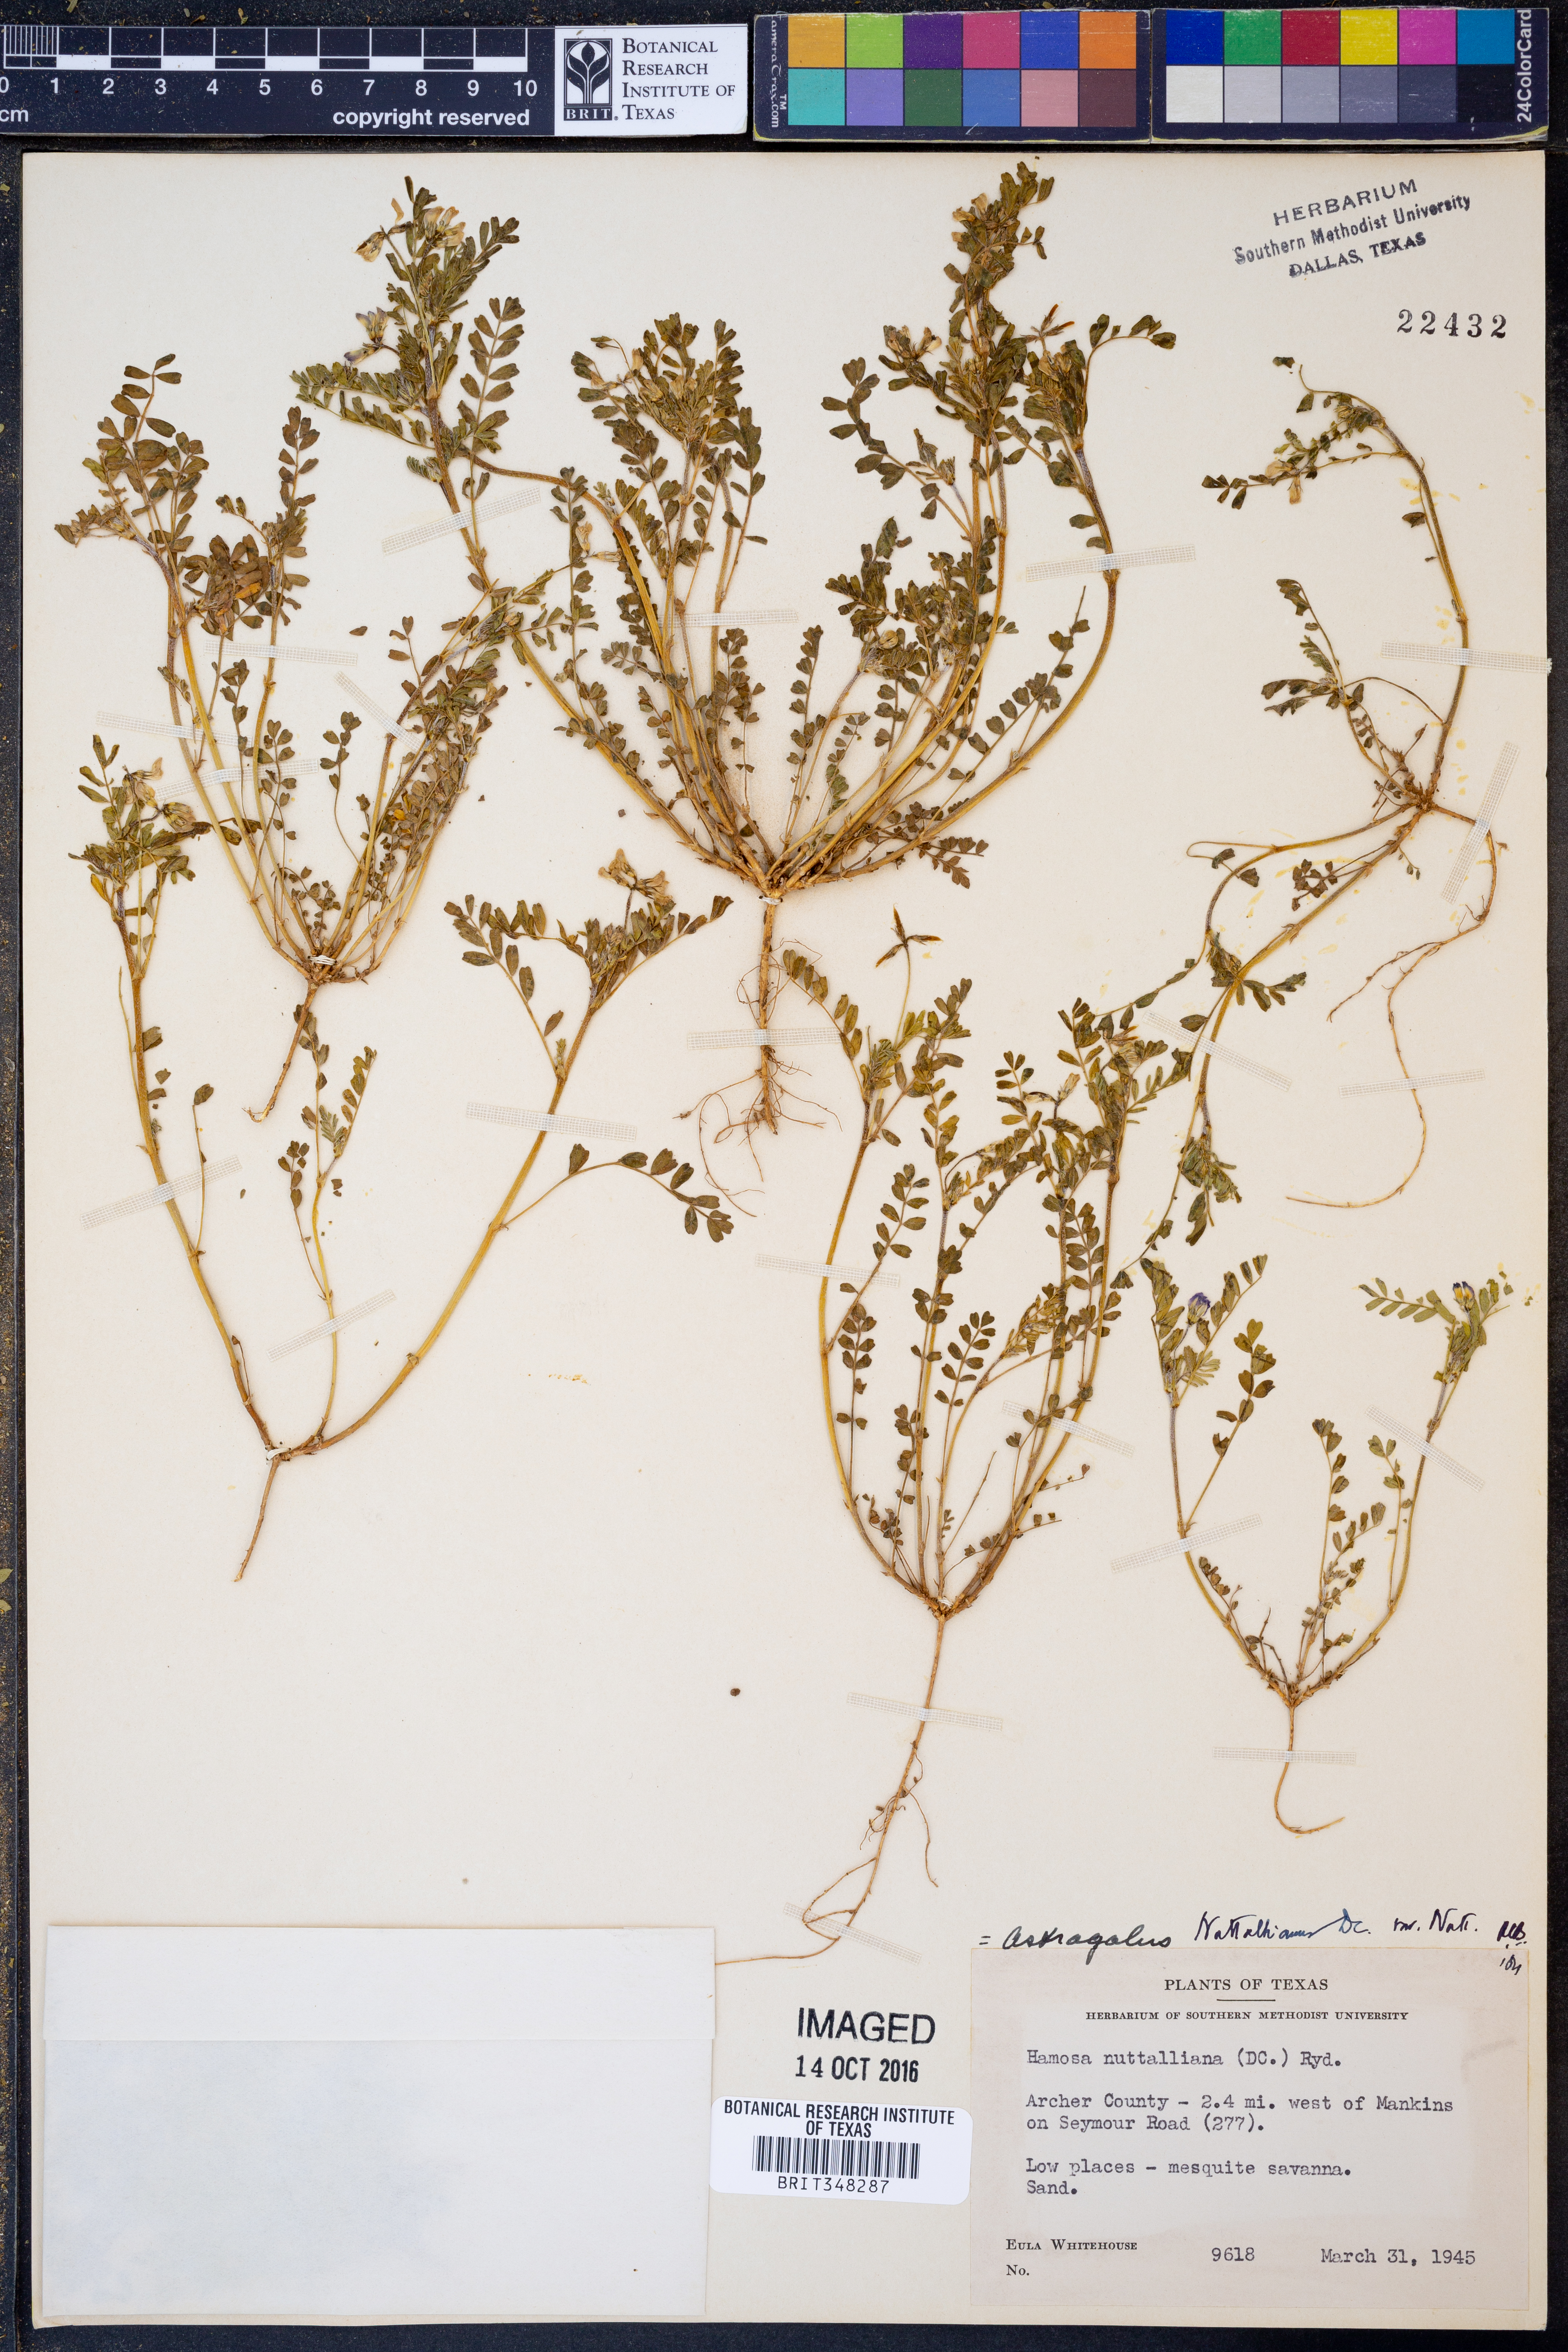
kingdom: Plantae
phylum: Tracheophyta
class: Magnoliopsida
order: Fabales
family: Fabaceae
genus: Astragalus
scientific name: Astragalus nuttallianus
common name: Smallflowered milkvetch
